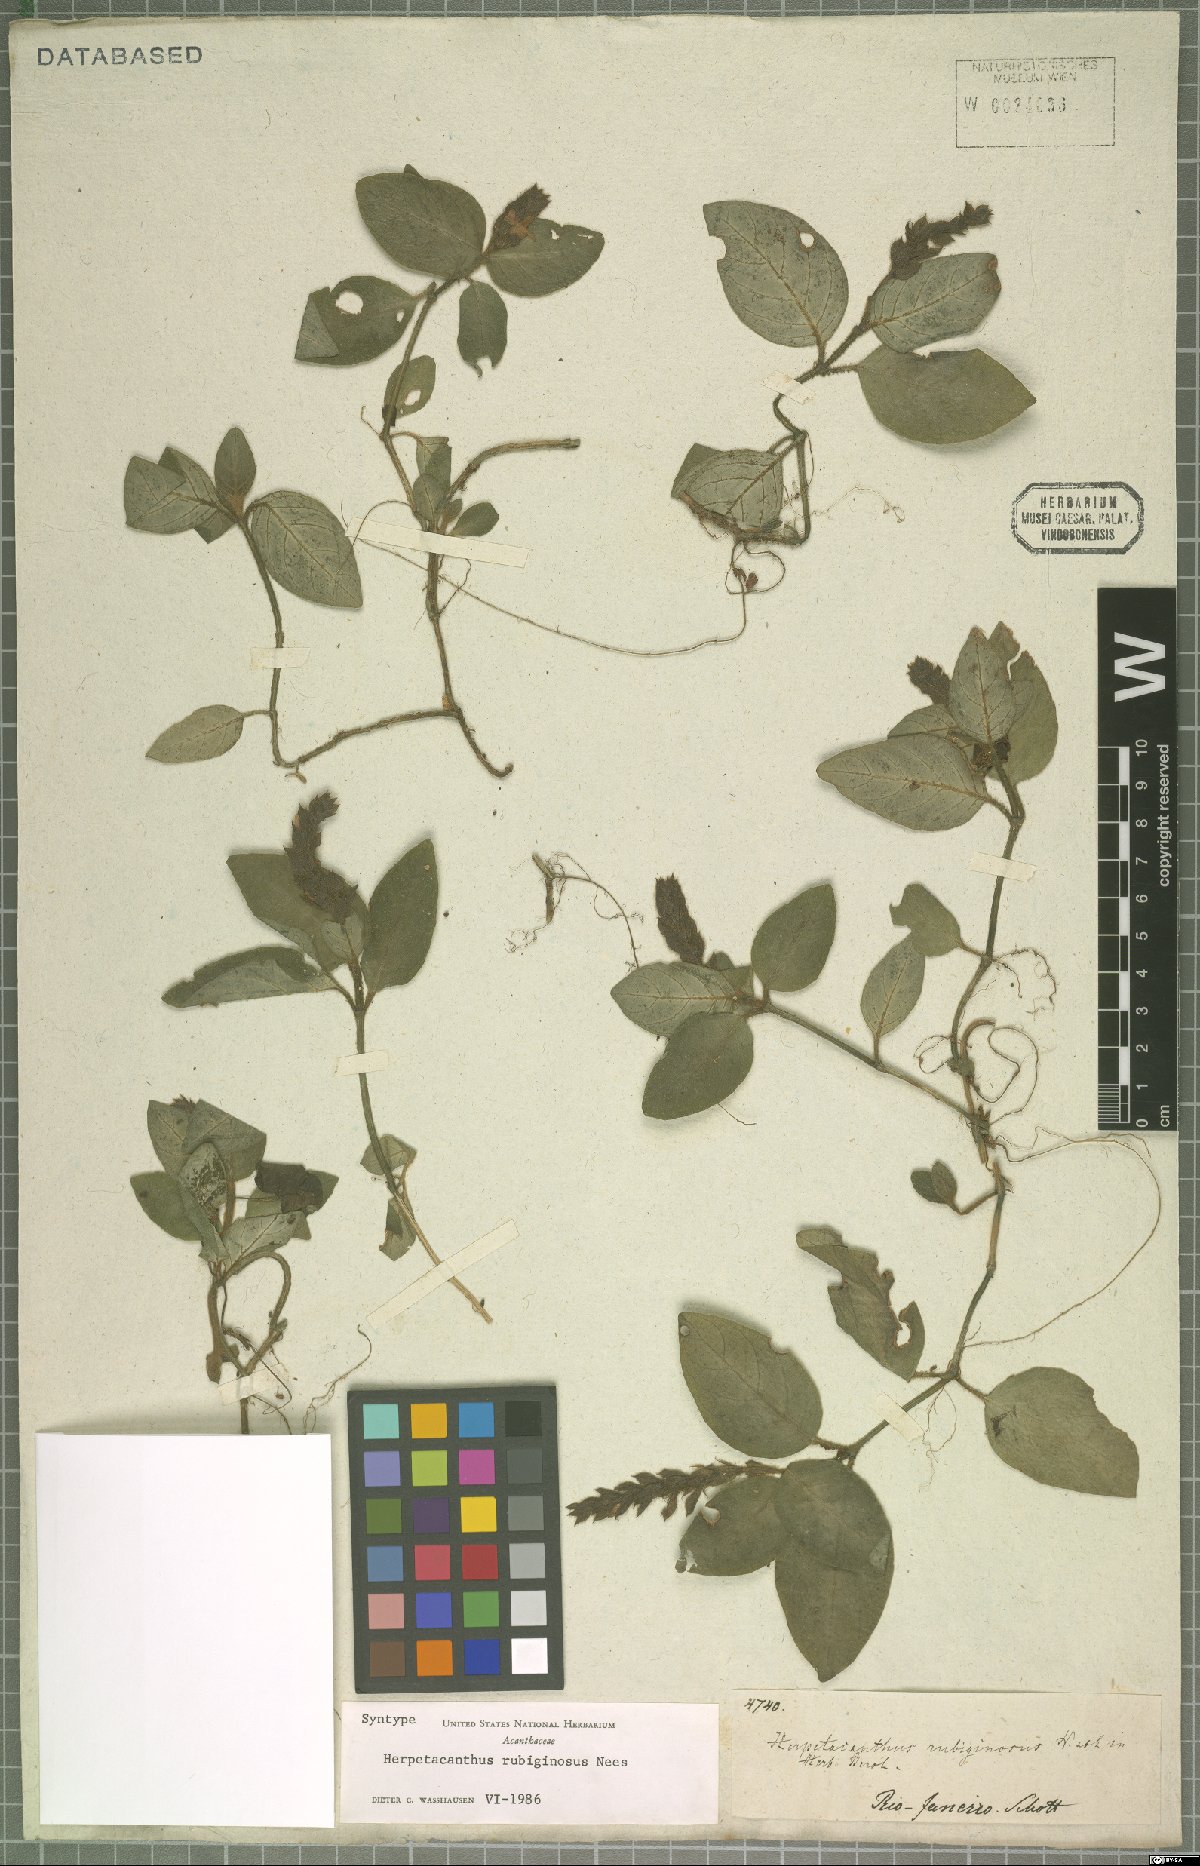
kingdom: Plantae
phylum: Tracheophyta
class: Magnoliopsida
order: Lamiales
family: Acanthaceae
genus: Herpetacanthus
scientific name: Herpetacanthus rubiginosus
